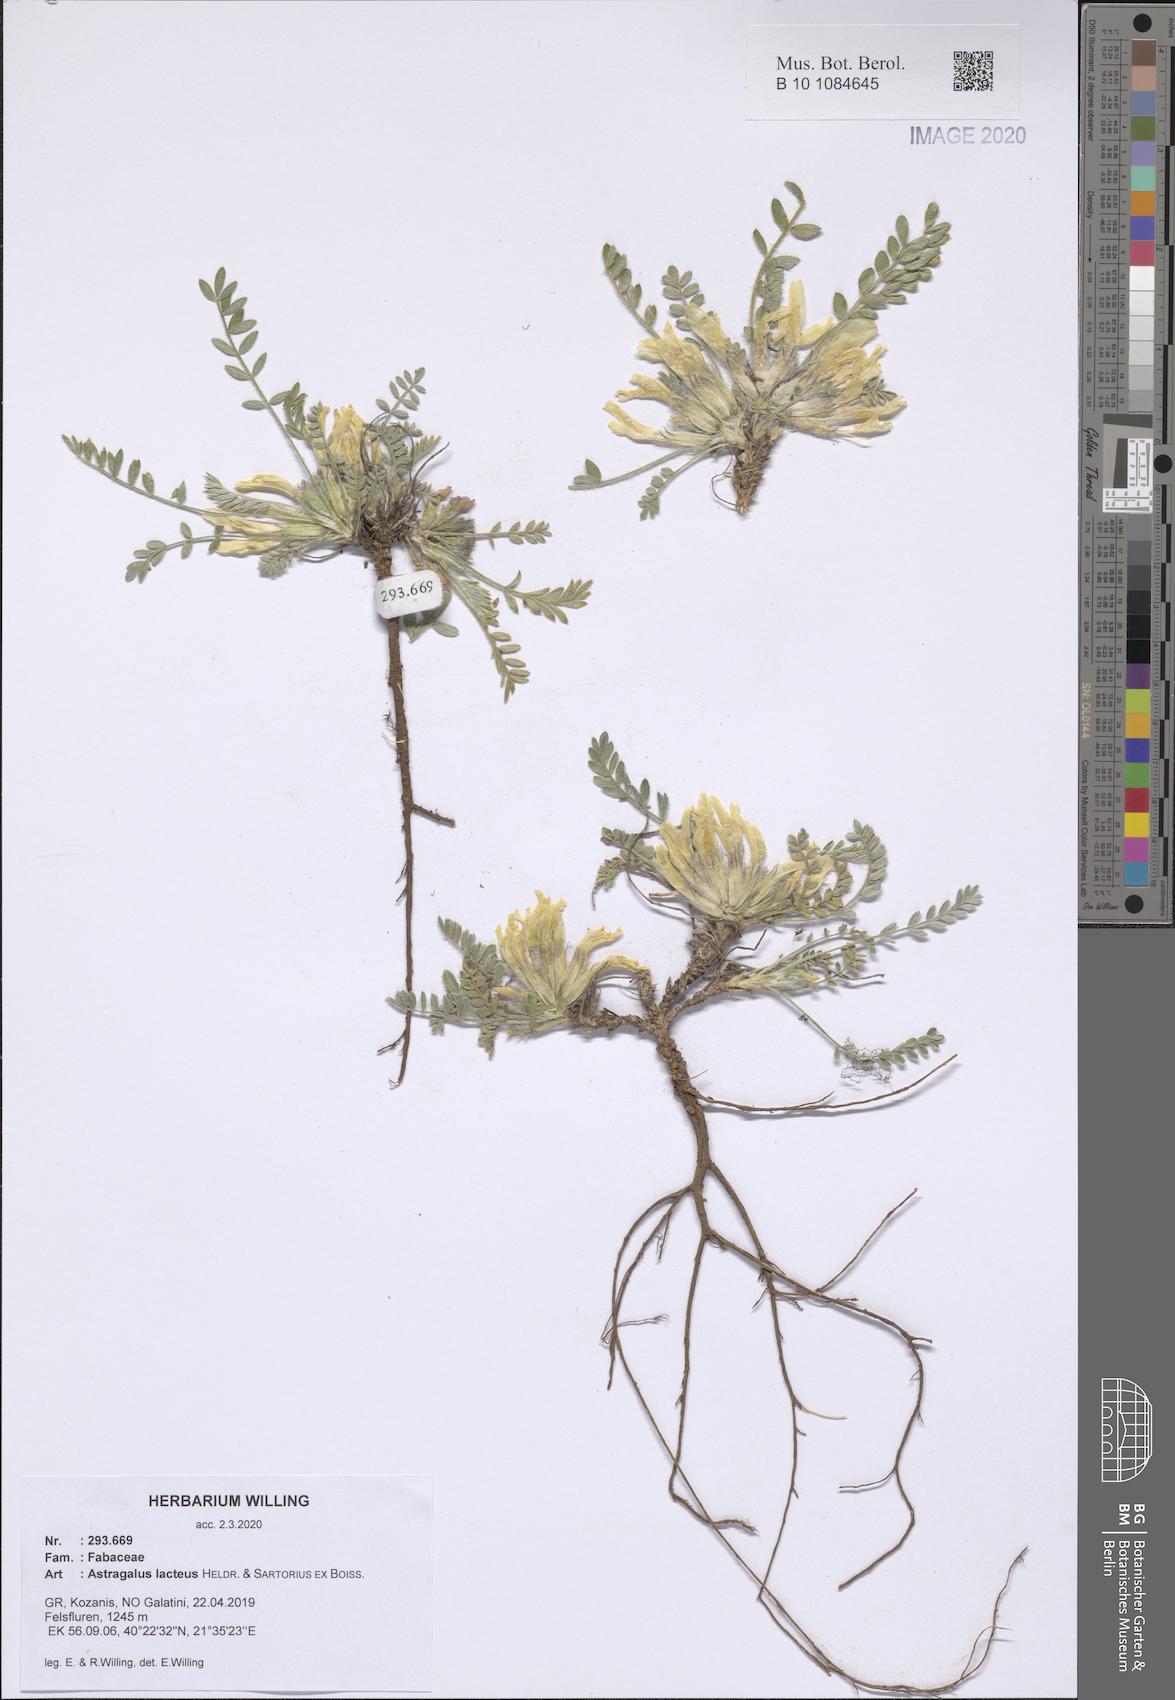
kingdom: Plantae
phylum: Tracheophyta
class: Magnoliopsida
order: Fabales
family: Fabaceae
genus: Astragalus
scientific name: Astragalus lacteus
